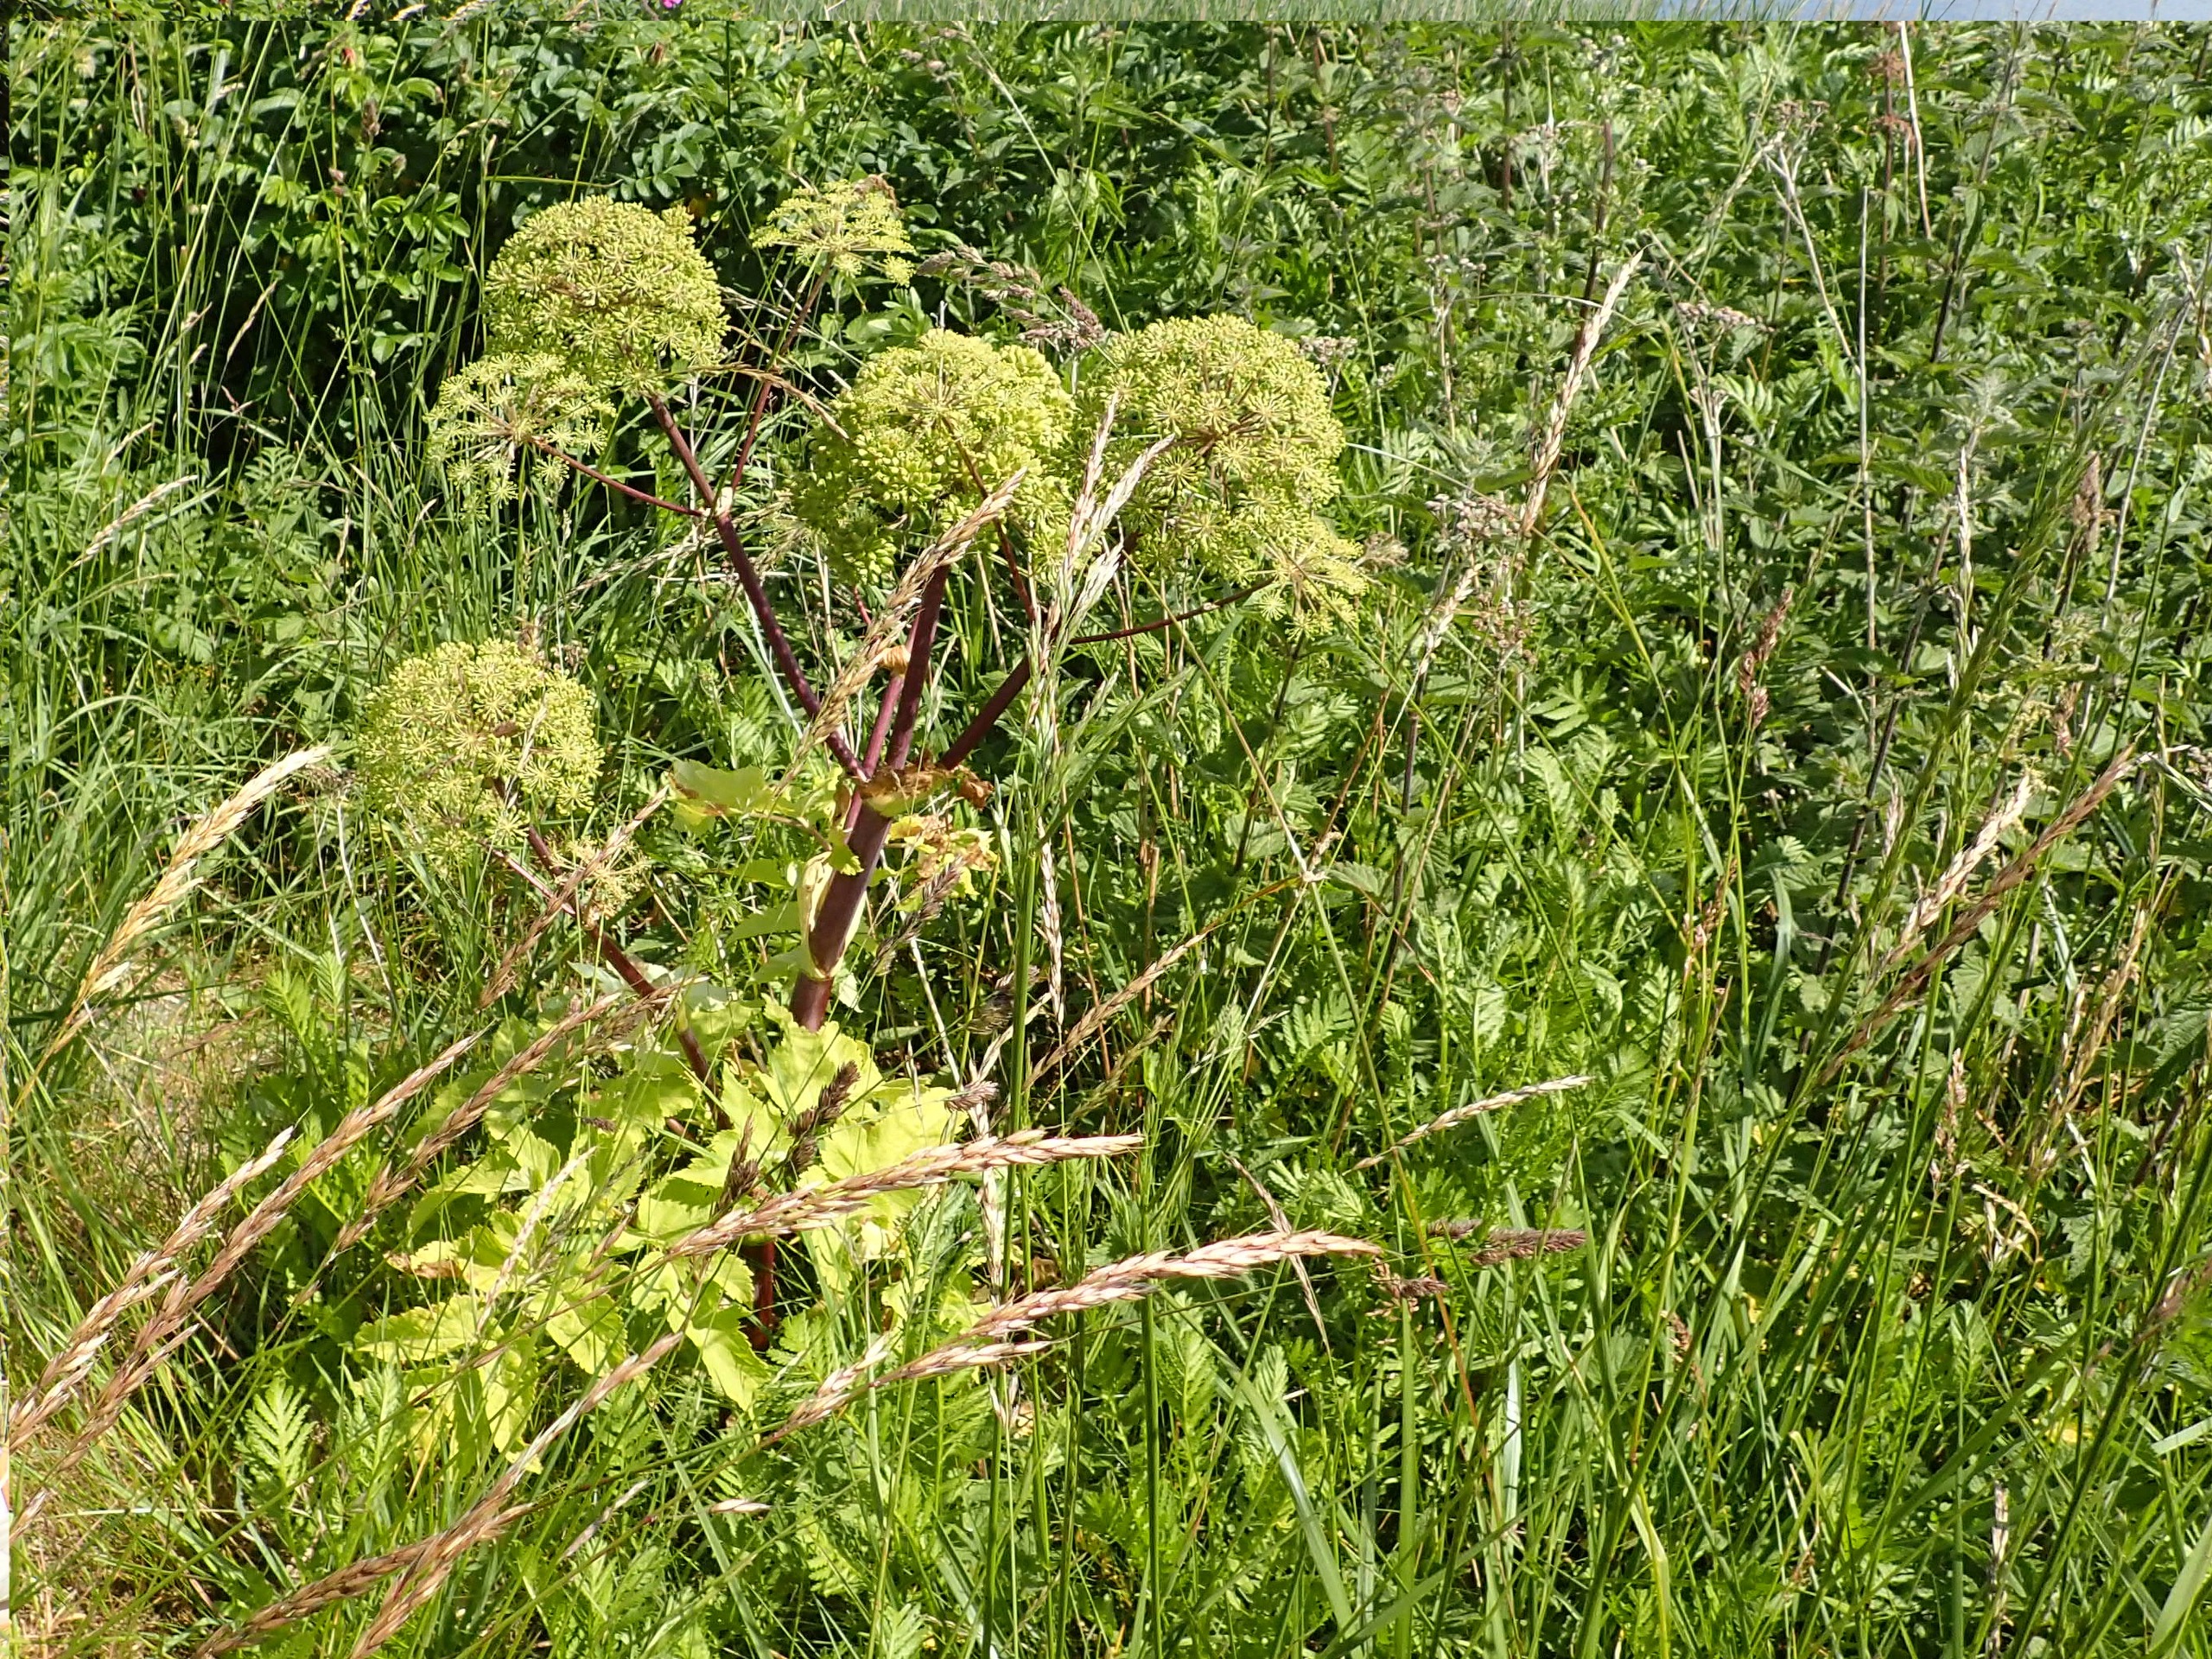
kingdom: Plantae
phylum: Tracheophyta
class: Magnoliopsida
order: Apiales
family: Apiaceae
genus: Angelica
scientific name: Angelica archangelica
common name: Strand-kvan
